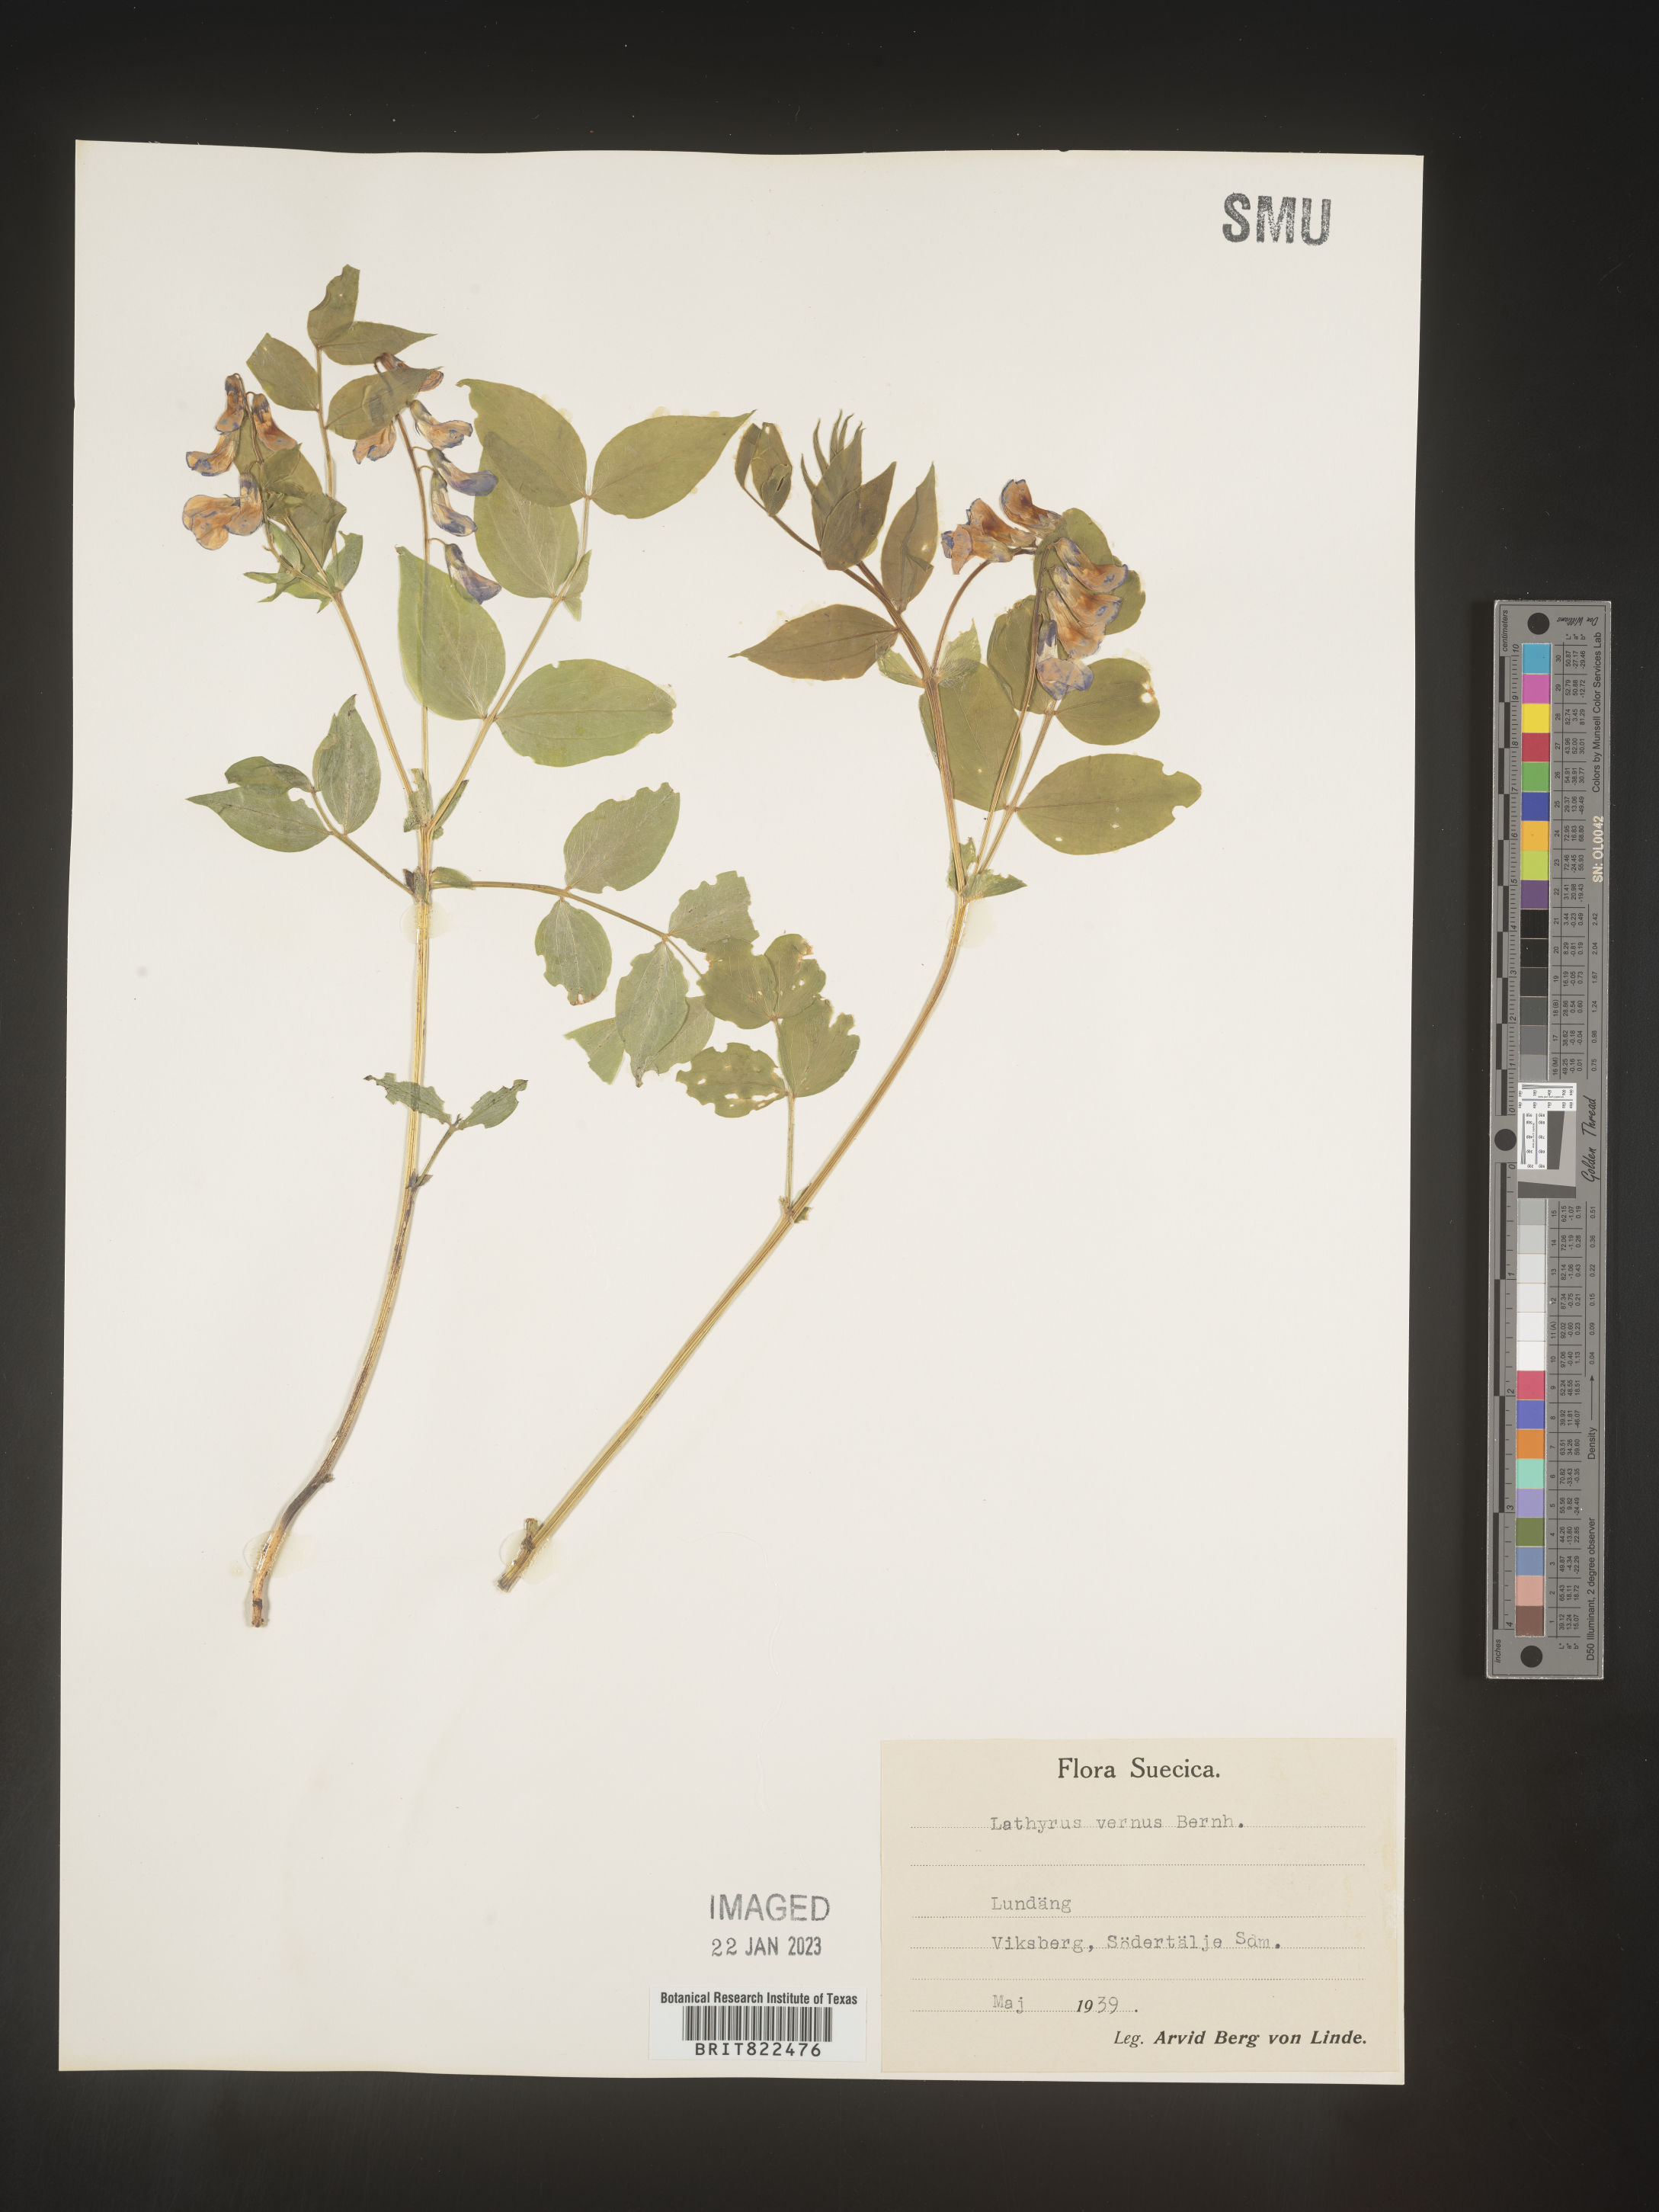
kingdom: Plantae
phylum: Tracheophyta
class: Magnoliopsida
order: Fabales
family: Fabaceae
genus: Lathyrus
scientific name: Lathyrus
